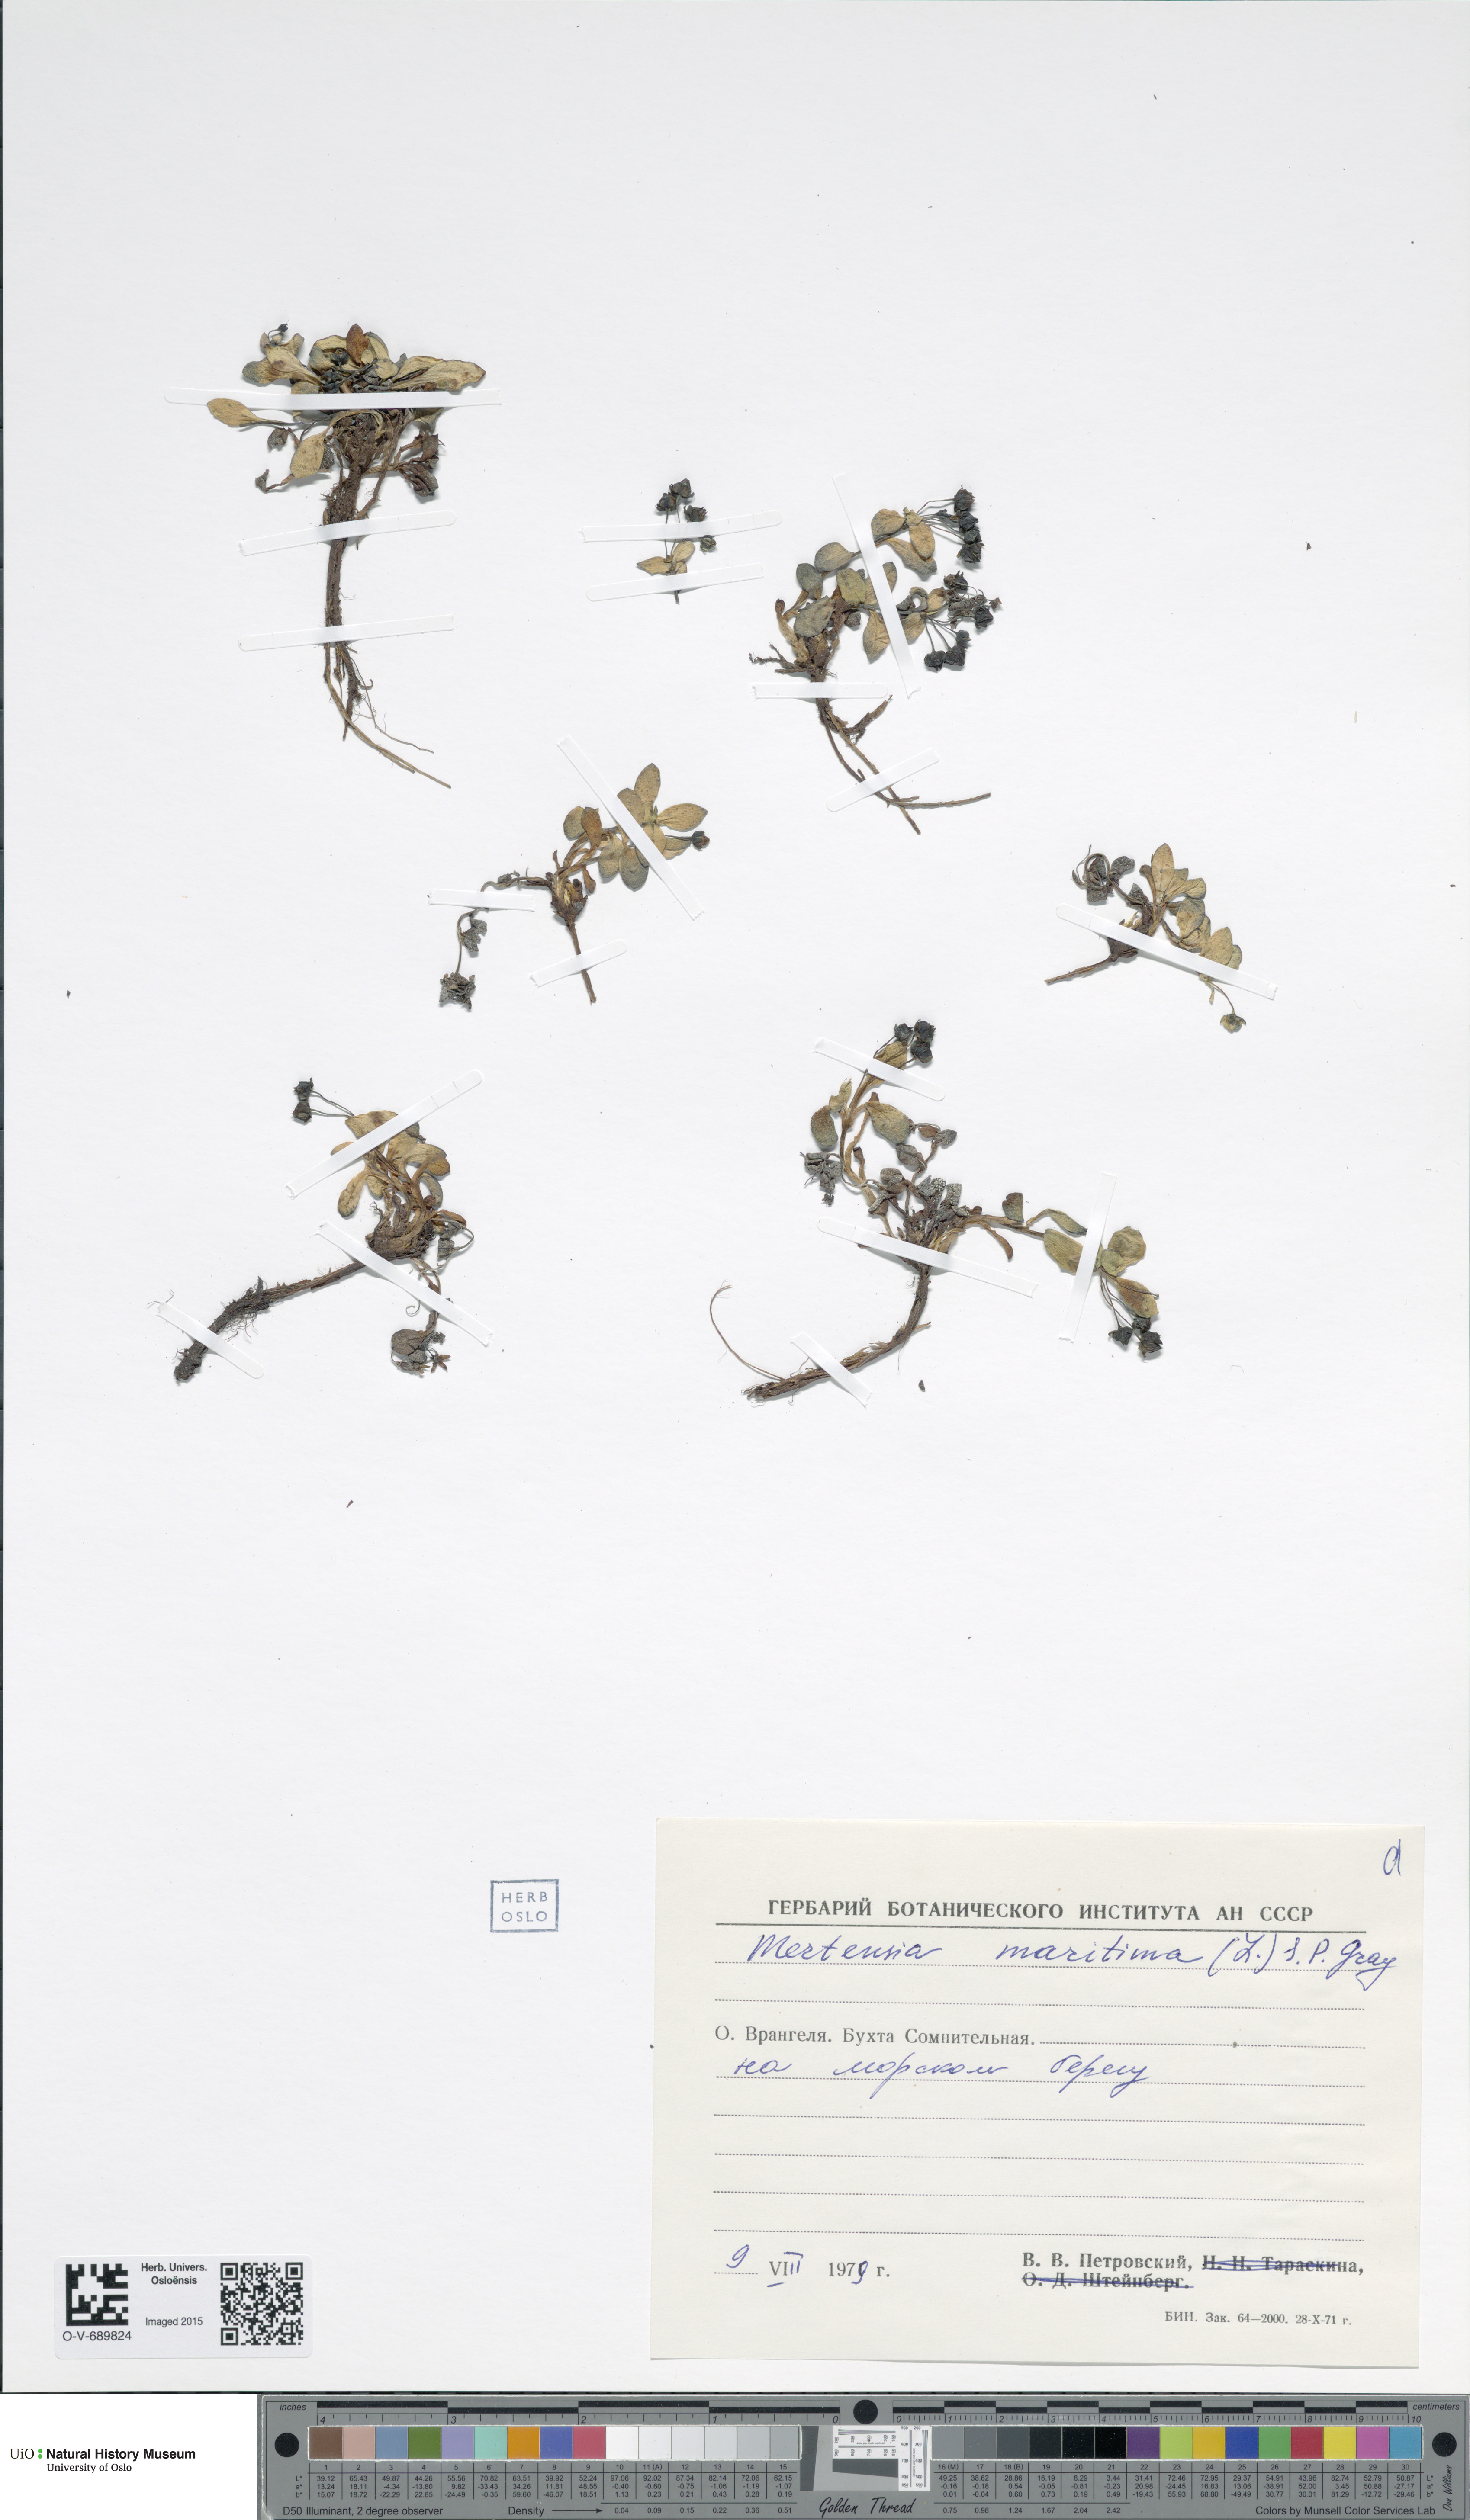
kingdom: Plantae
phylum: Tracheophyta
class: Magnoliopsida
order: Boraginales
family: Boraginaceae
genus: Mertensia
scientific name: Mertensia maritima
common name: Oysterplant
